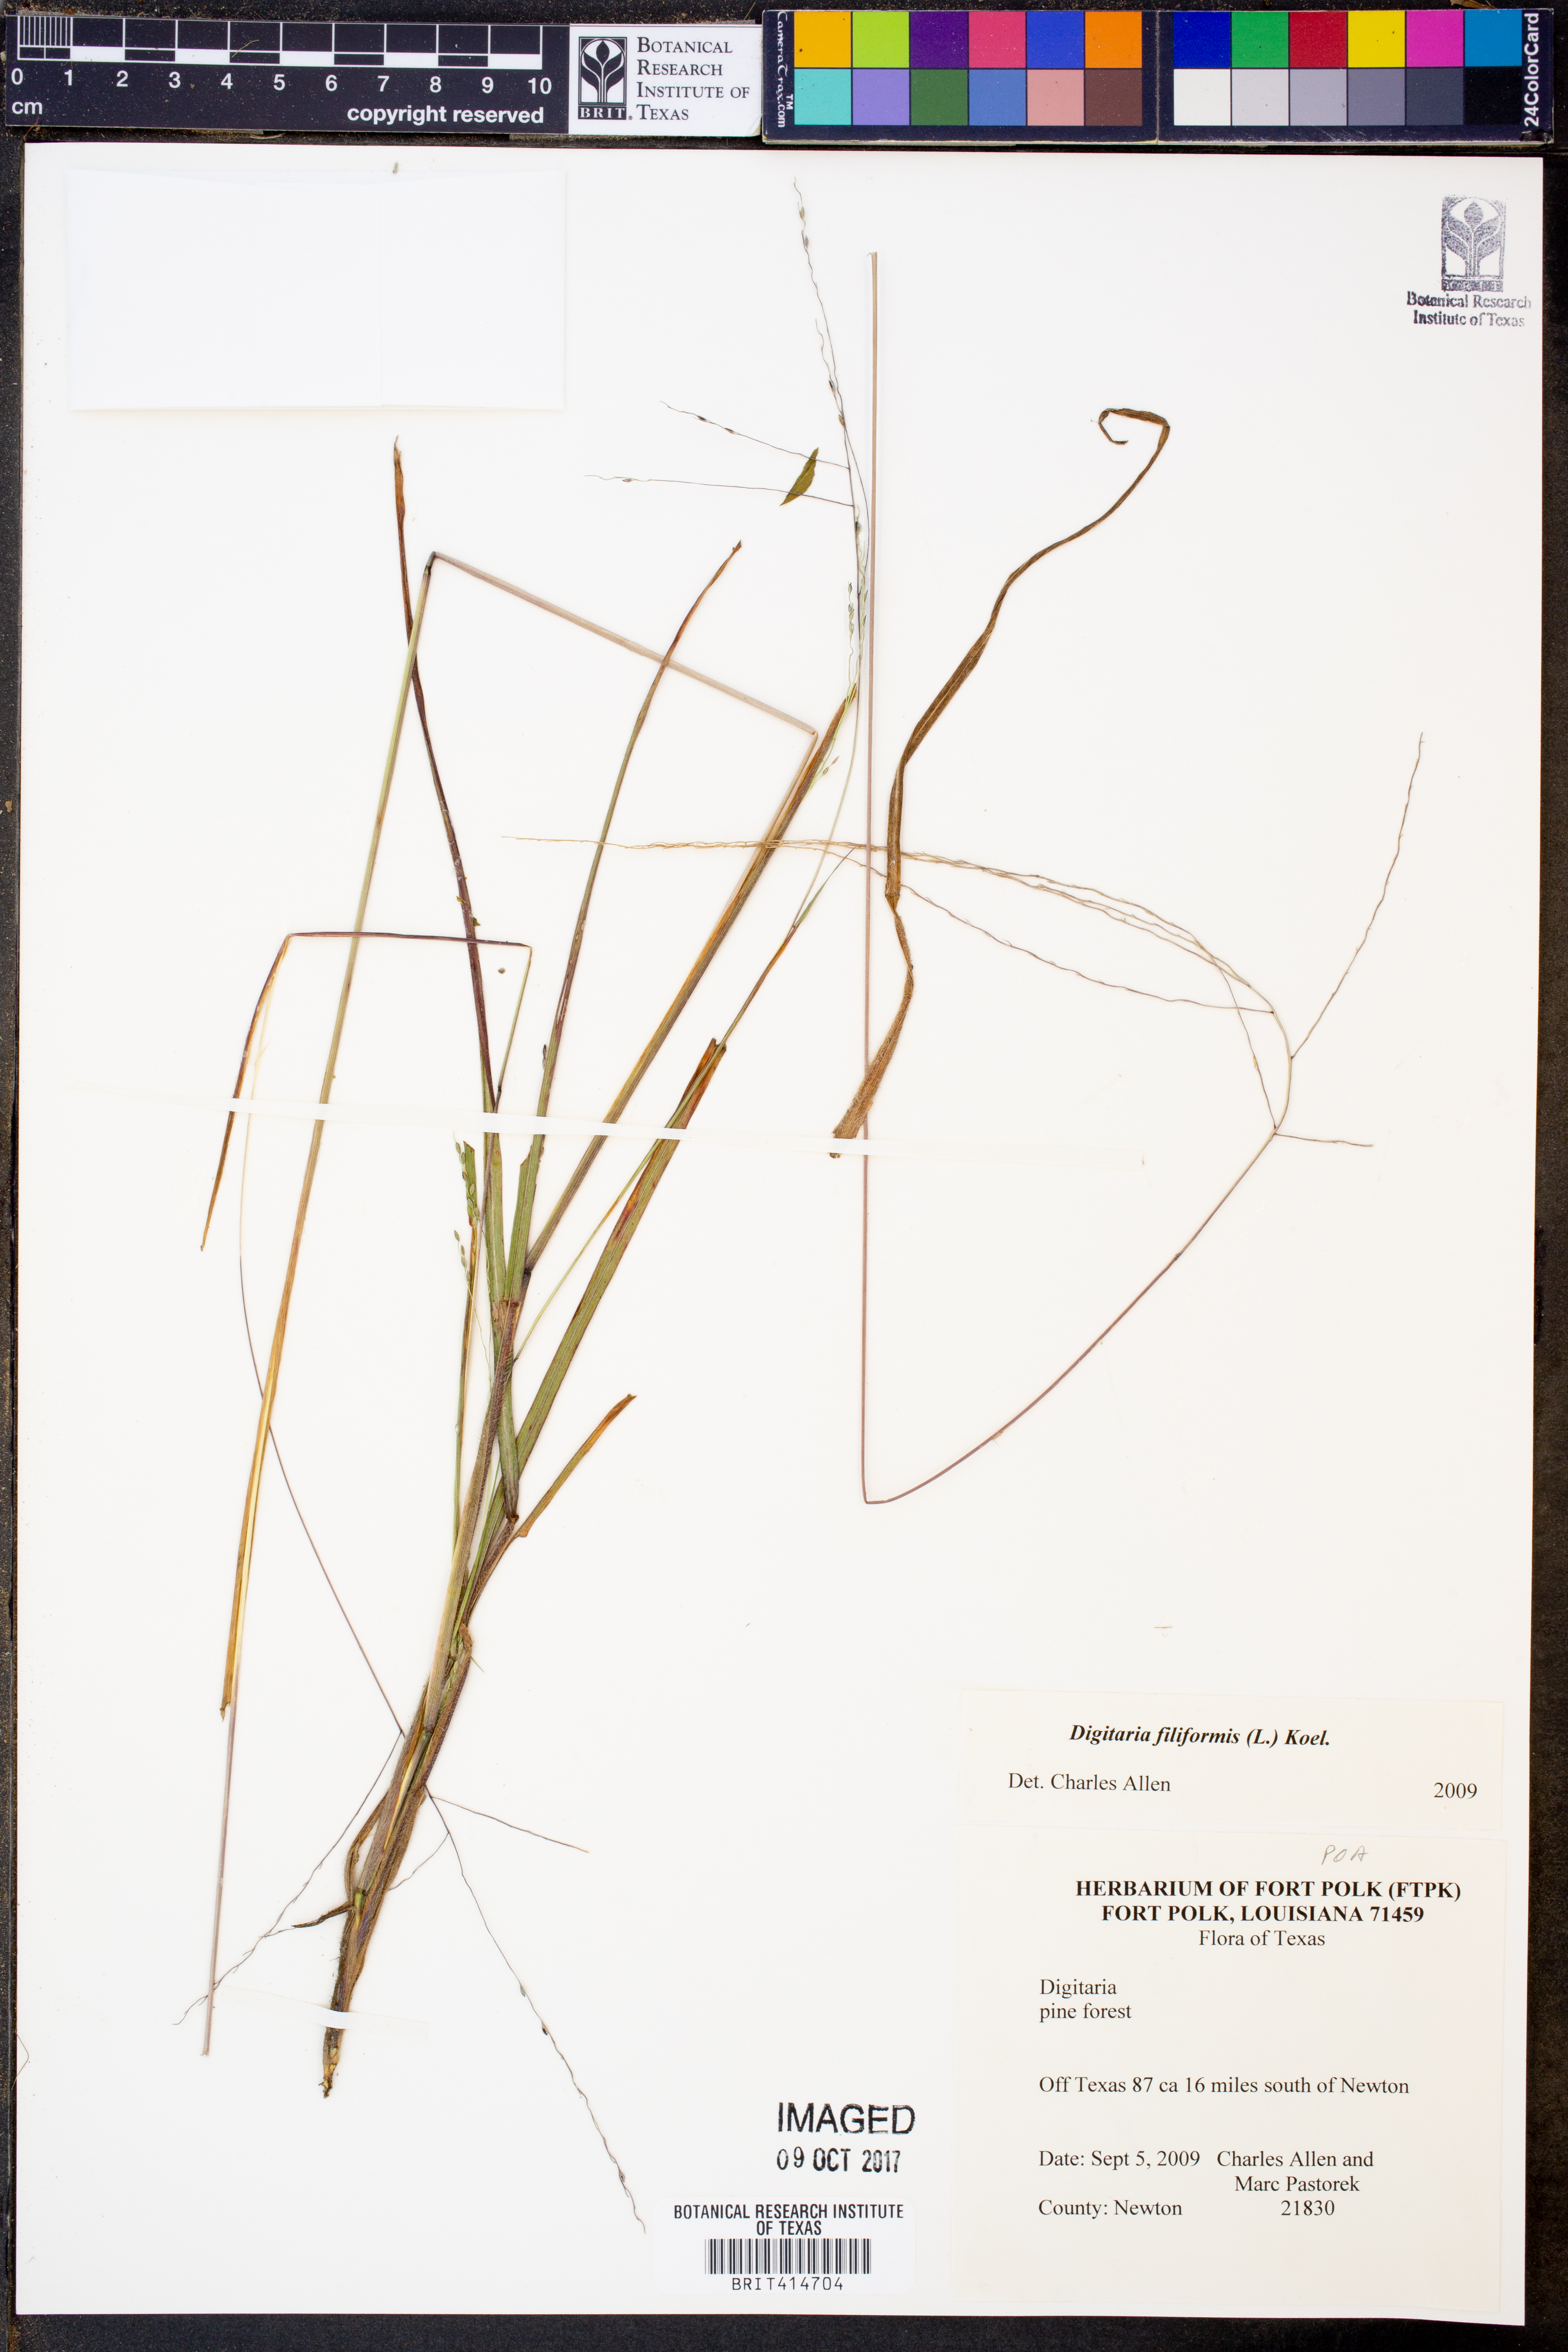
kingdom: Plantae
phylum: Tracheophyta
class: Liliopsida
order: Poales
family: Poaceae
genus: Digitaria
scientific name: Digitaria filiformis
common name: Slender crabgrass
